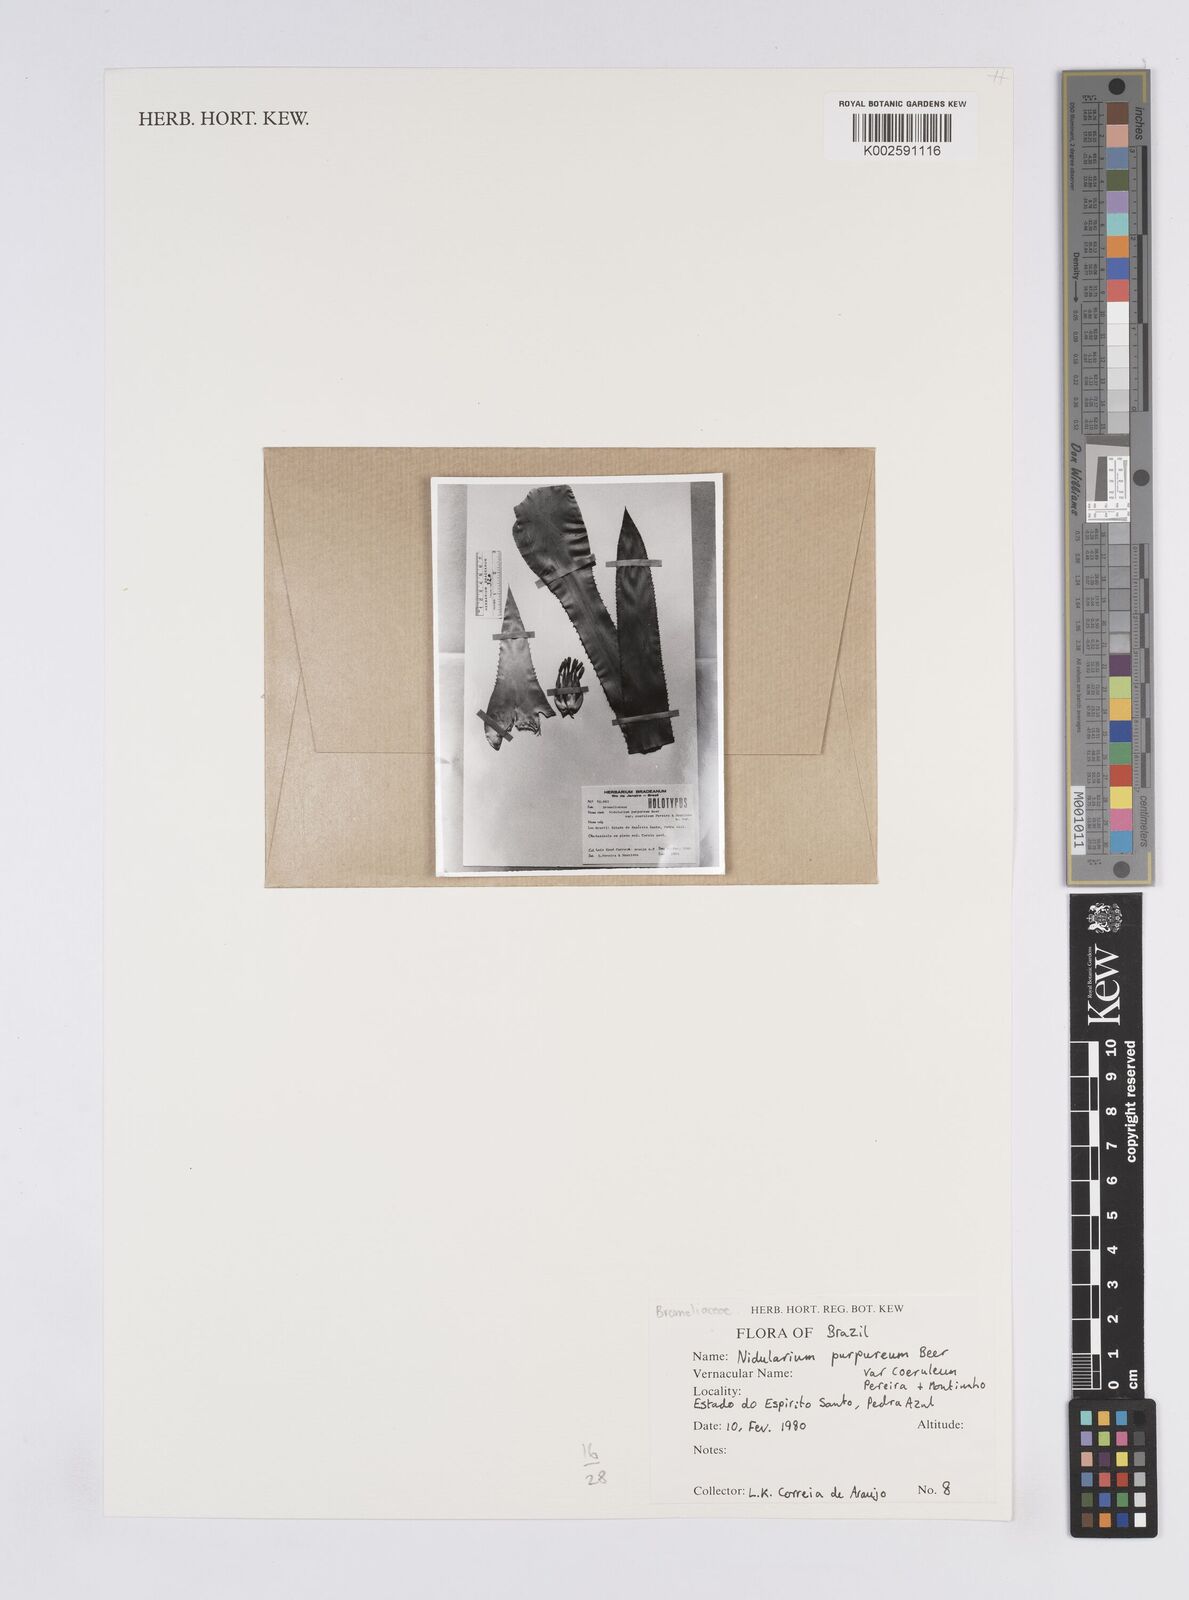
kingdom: Plantae
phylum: Tracheophyta
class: Liliopsida
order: Poales
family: Bromeliaceae
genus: Nidularium
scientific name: Nidularium purpureum
